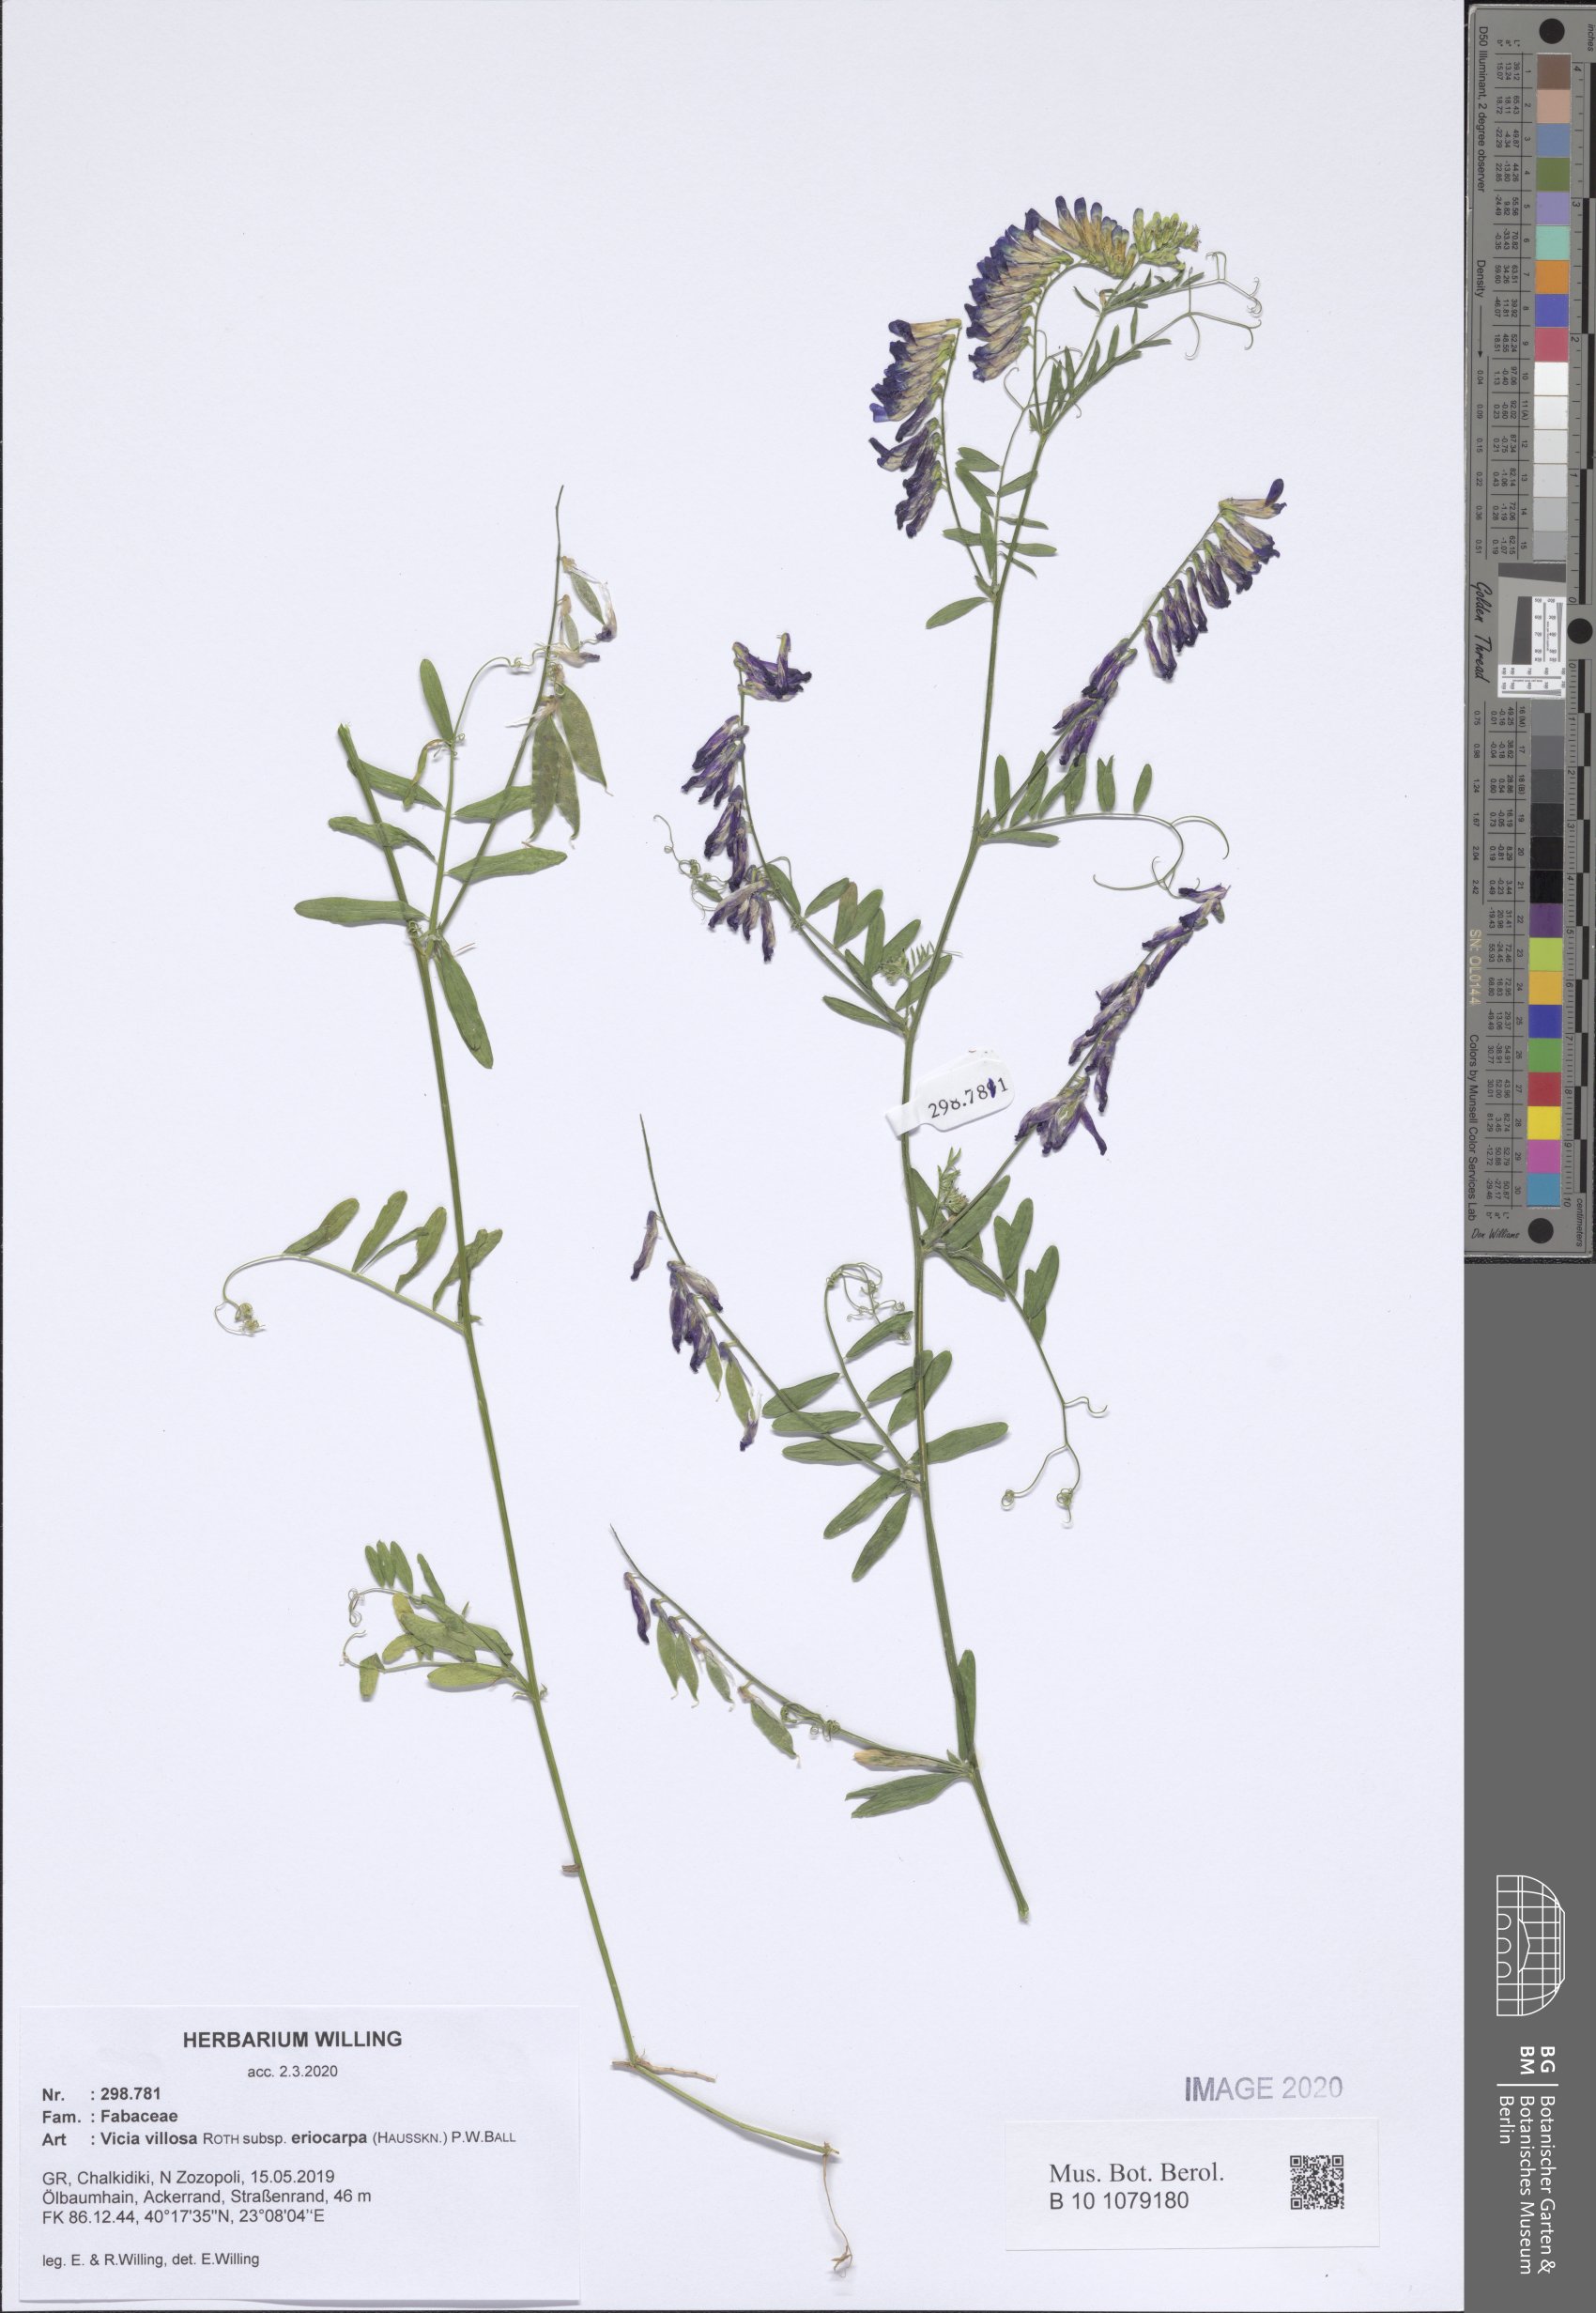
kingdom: Plantae
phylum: Tracheophyta
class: Magnoliopsida
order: Fabales
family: Fabaceae
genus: Vicia
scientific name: Vicia eriocarpa
